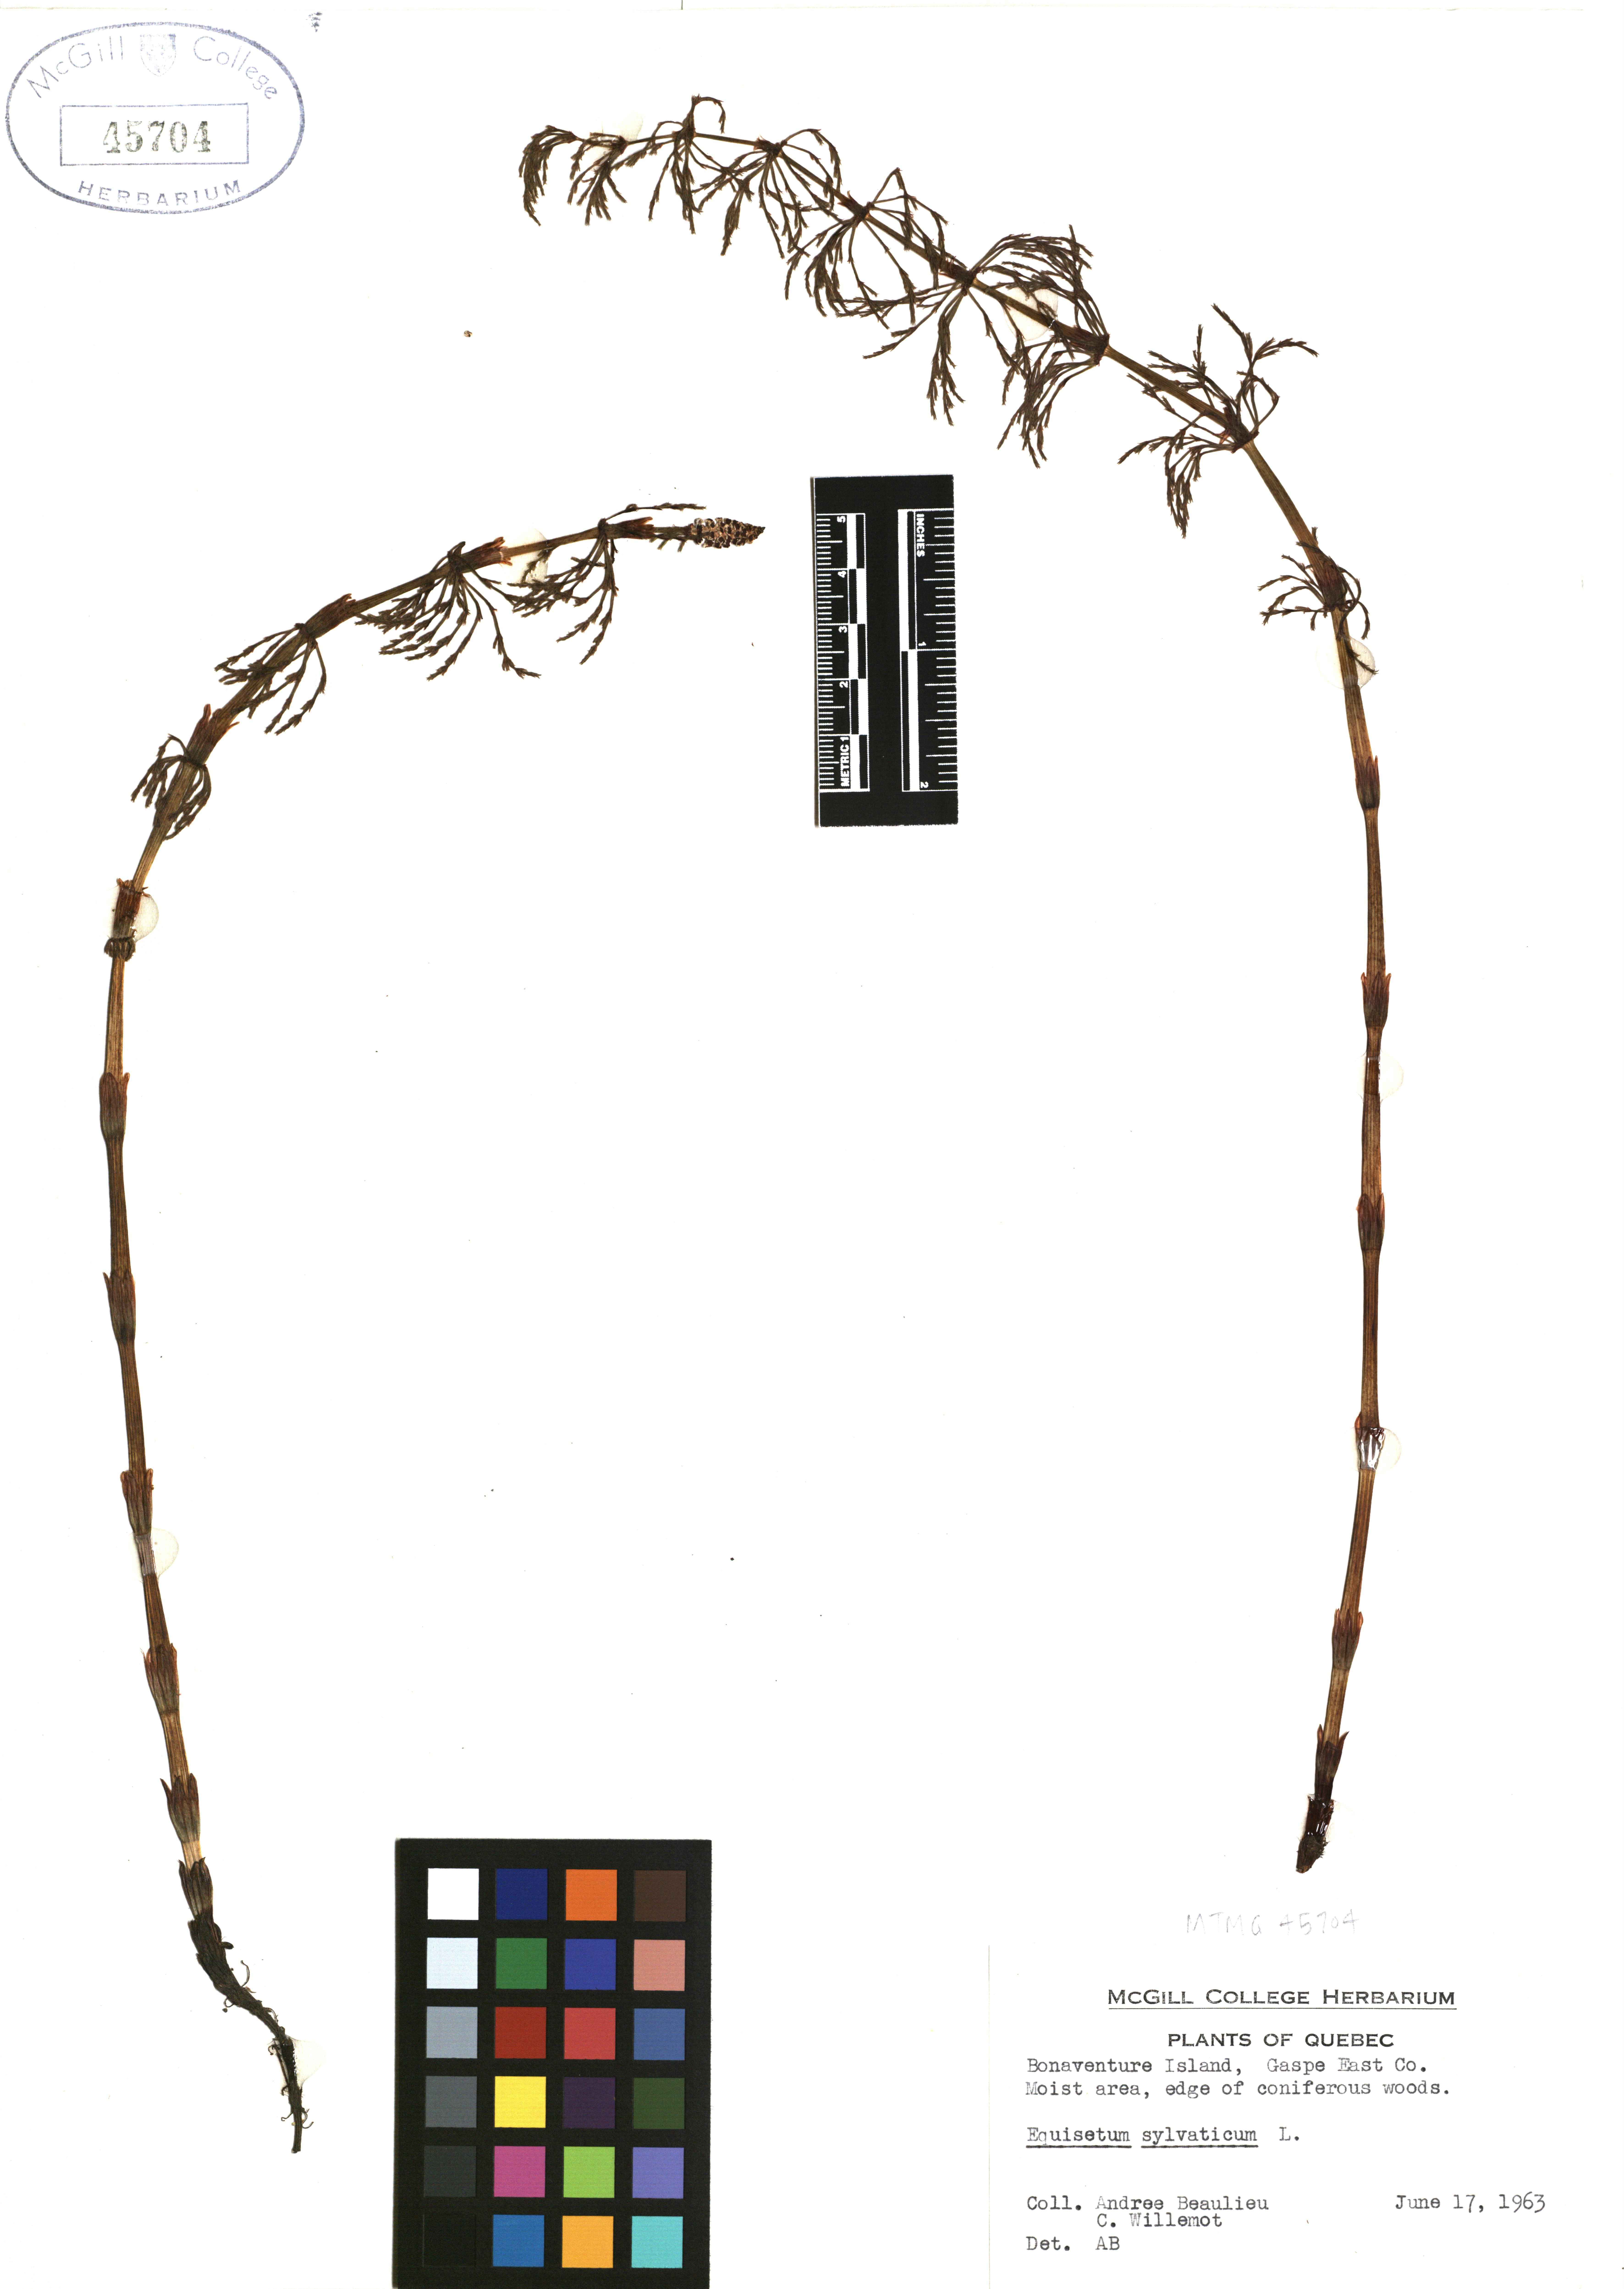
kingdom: Plantae
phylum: Tracheophyta
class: Polypodiopsida
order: Equisetales
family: Equisetaceae
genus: Equisetum
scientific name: Equisetum sylvaticum
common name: Wood horsetail
